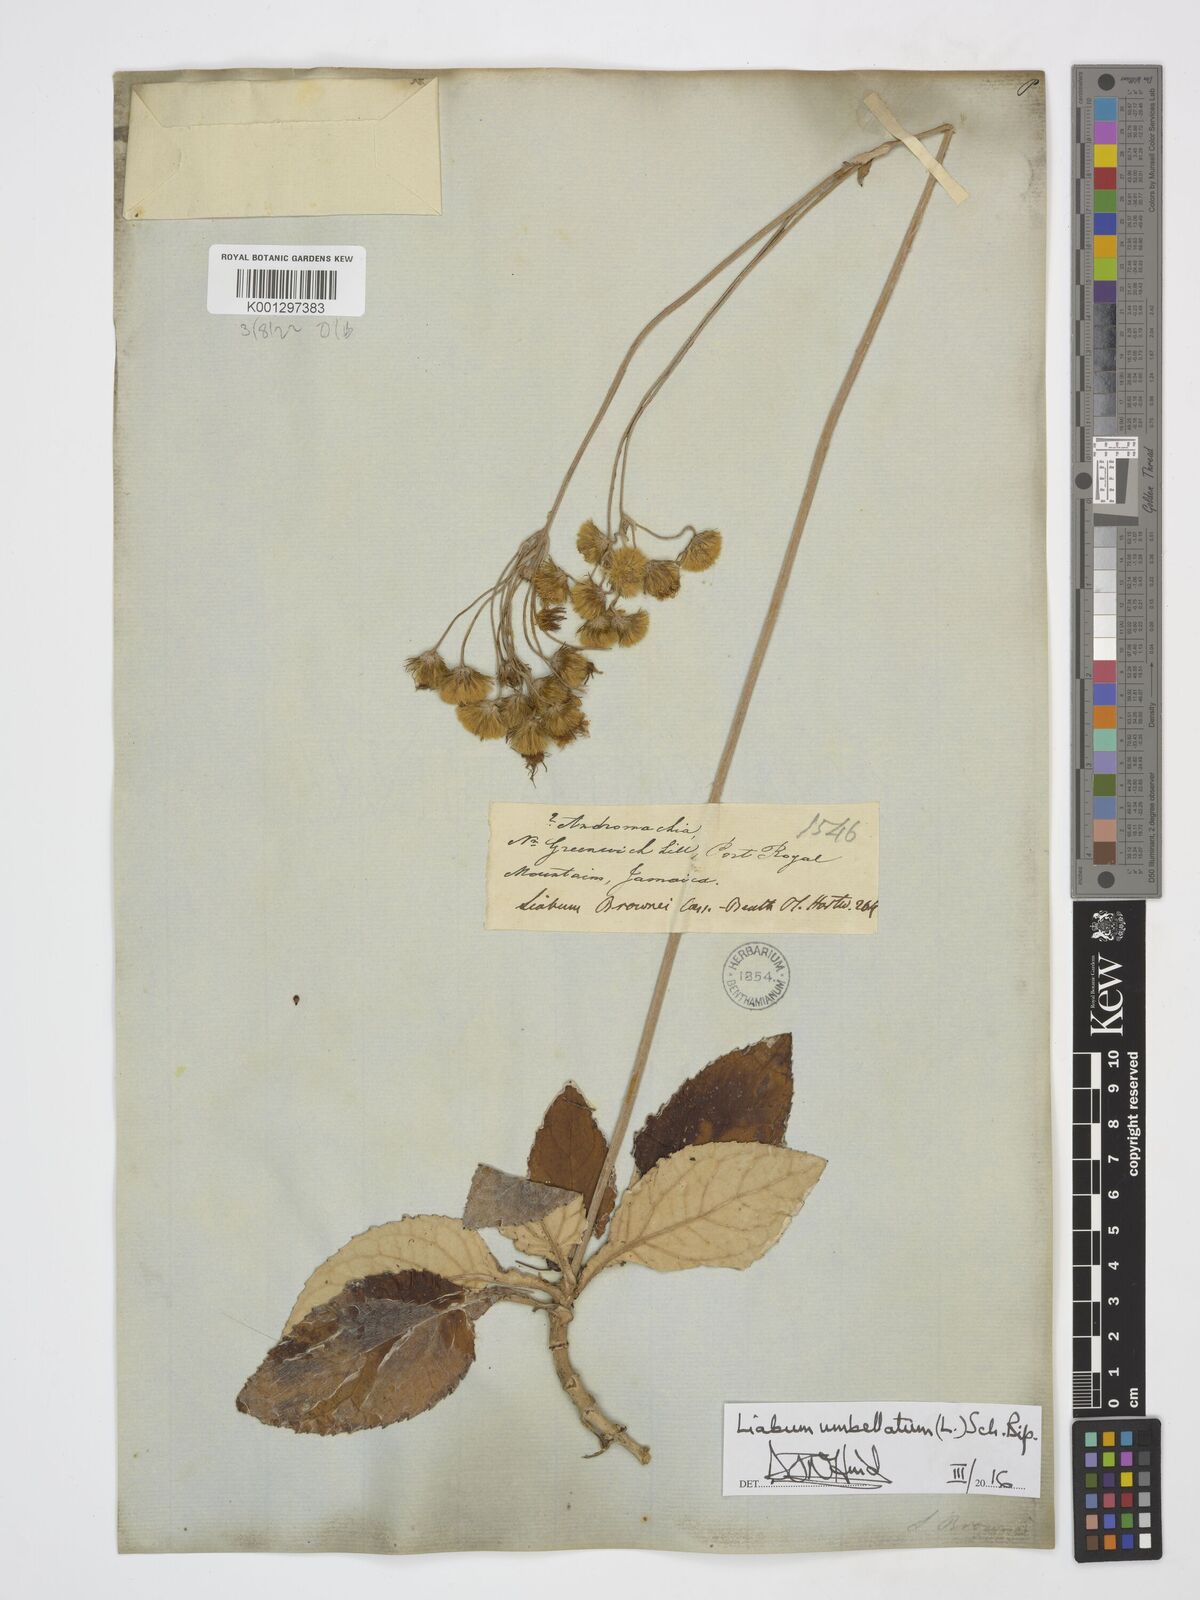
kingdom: Plantae
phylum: Tracheophyta
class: Magnoliopsida
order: Asterales
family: Asteraceae
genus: Liabum
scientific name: Liabum umbellatum
